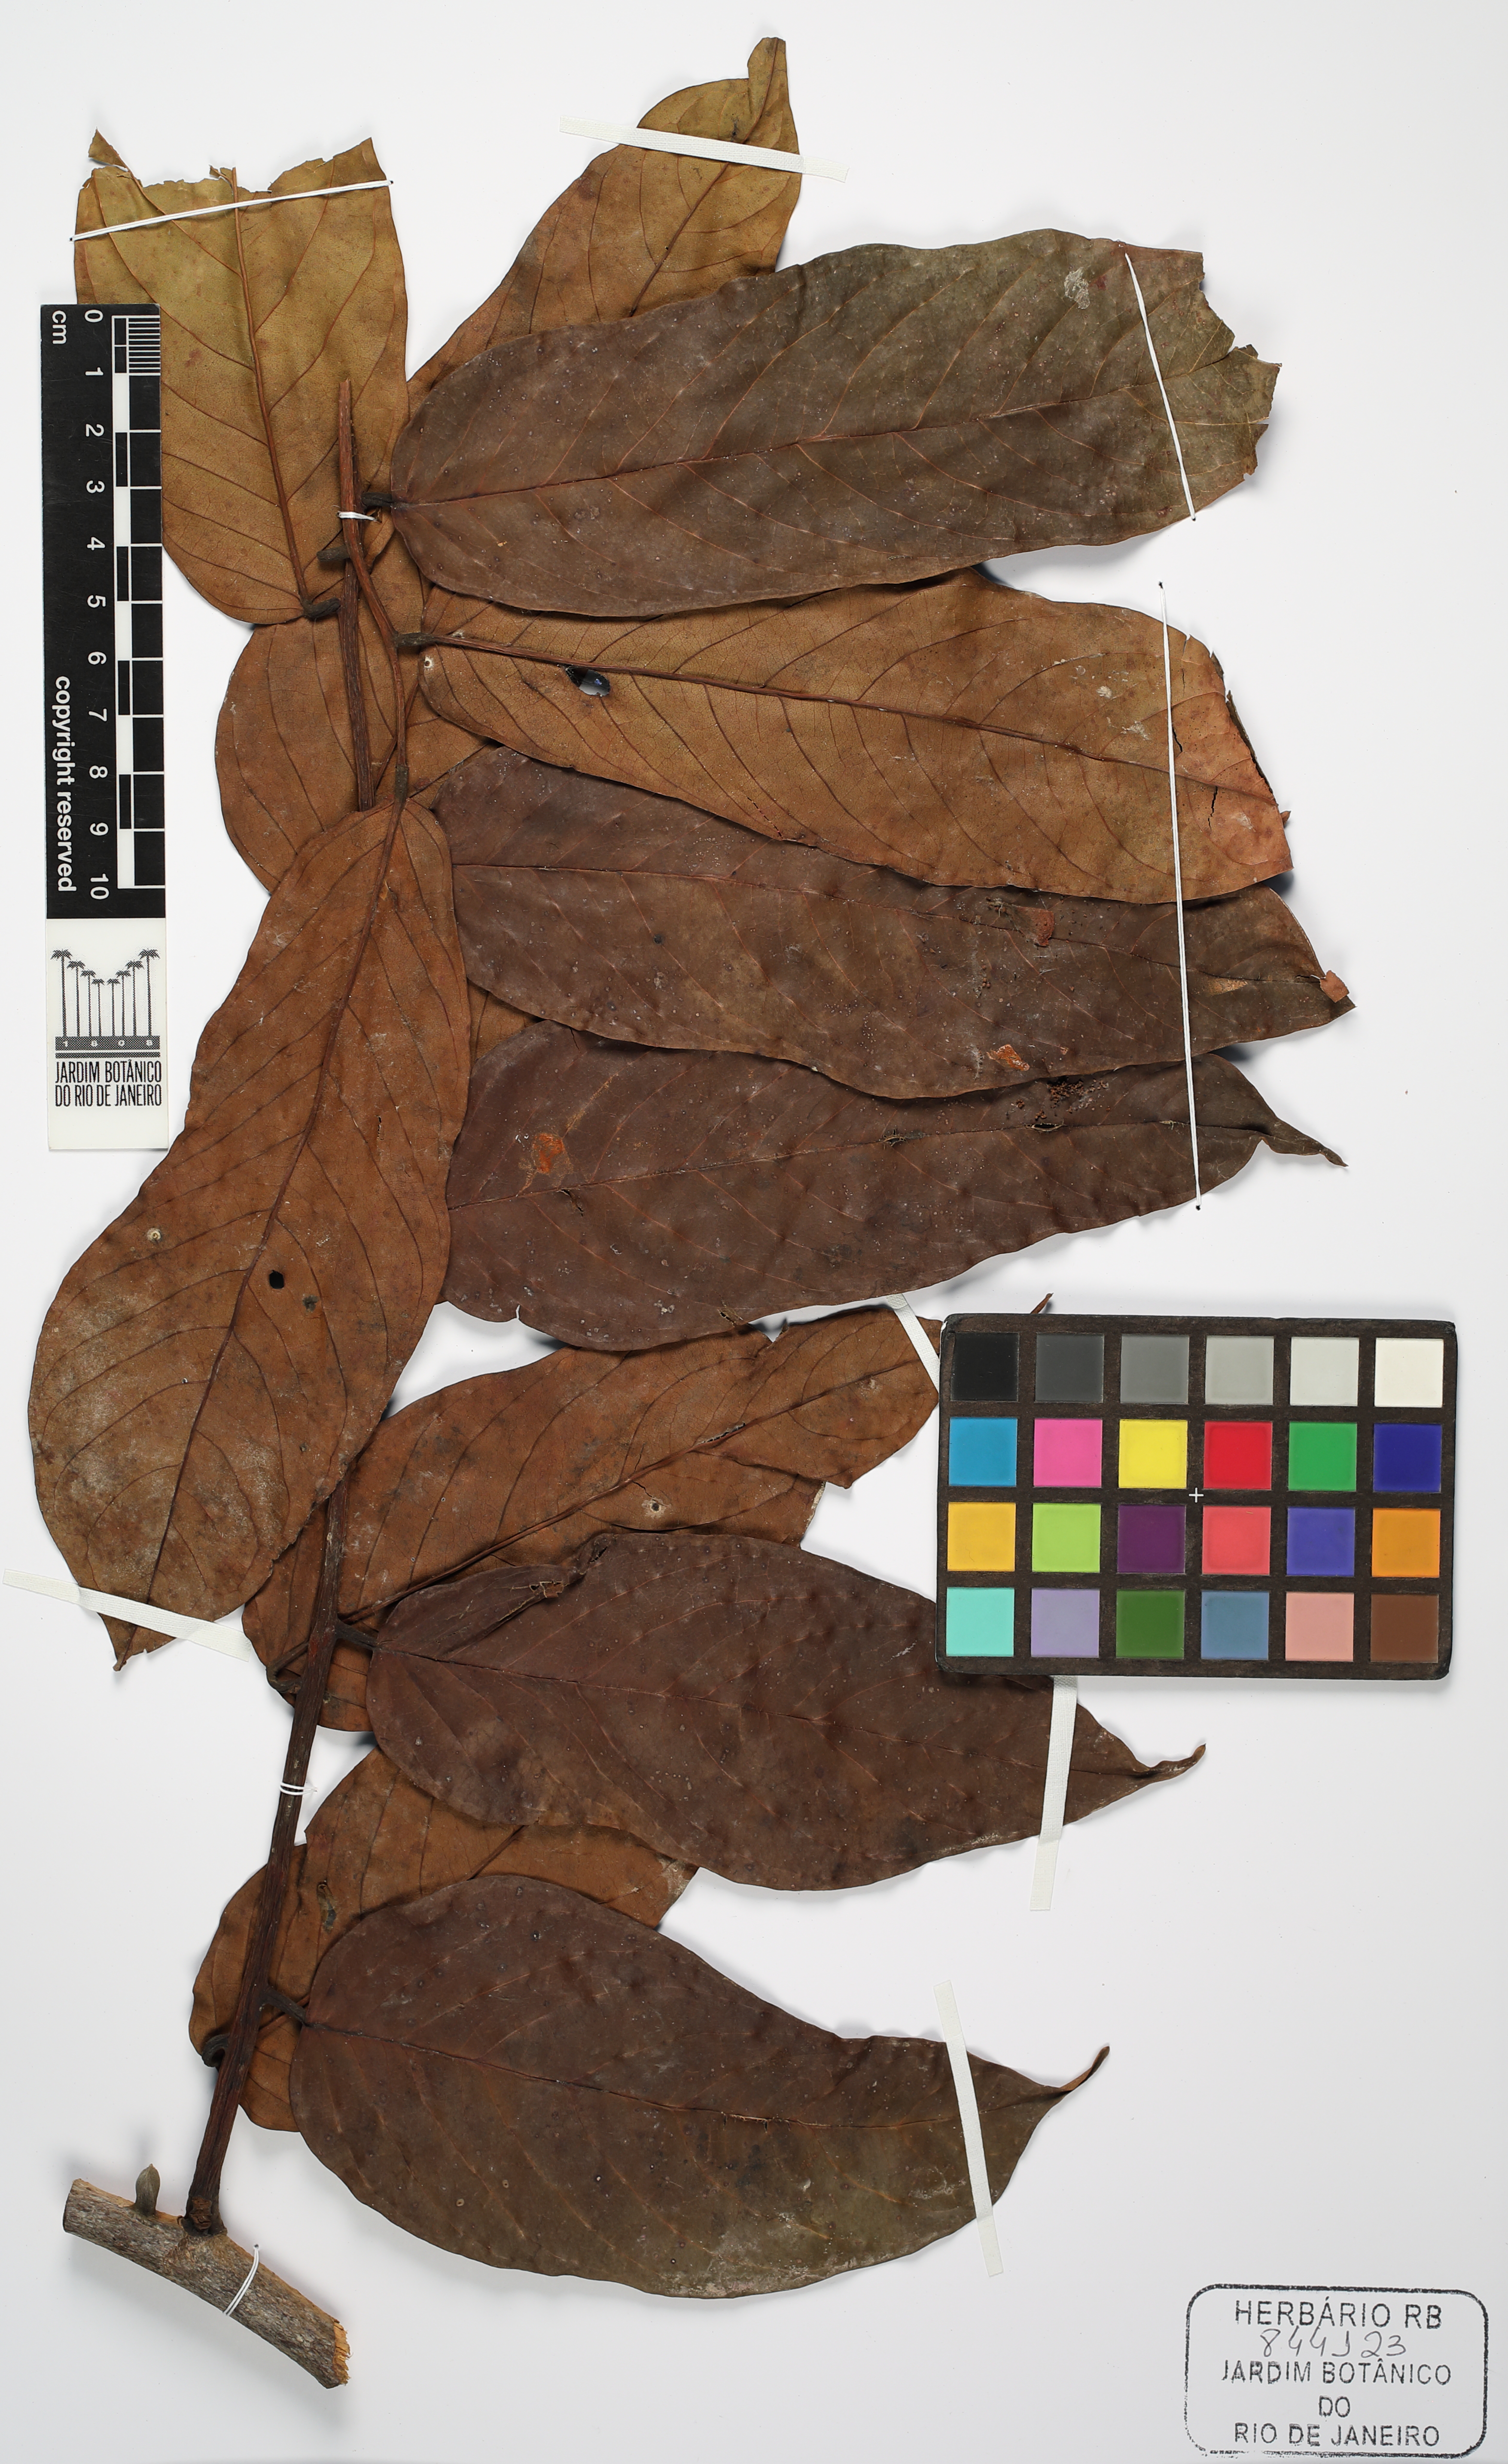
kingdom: Plantae
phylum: Tracheophyta
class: Magnoliopsida
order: Fabales
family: Fabaceae
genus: Dicorynia
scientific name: Dicorynia paraensis
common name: Angelique
